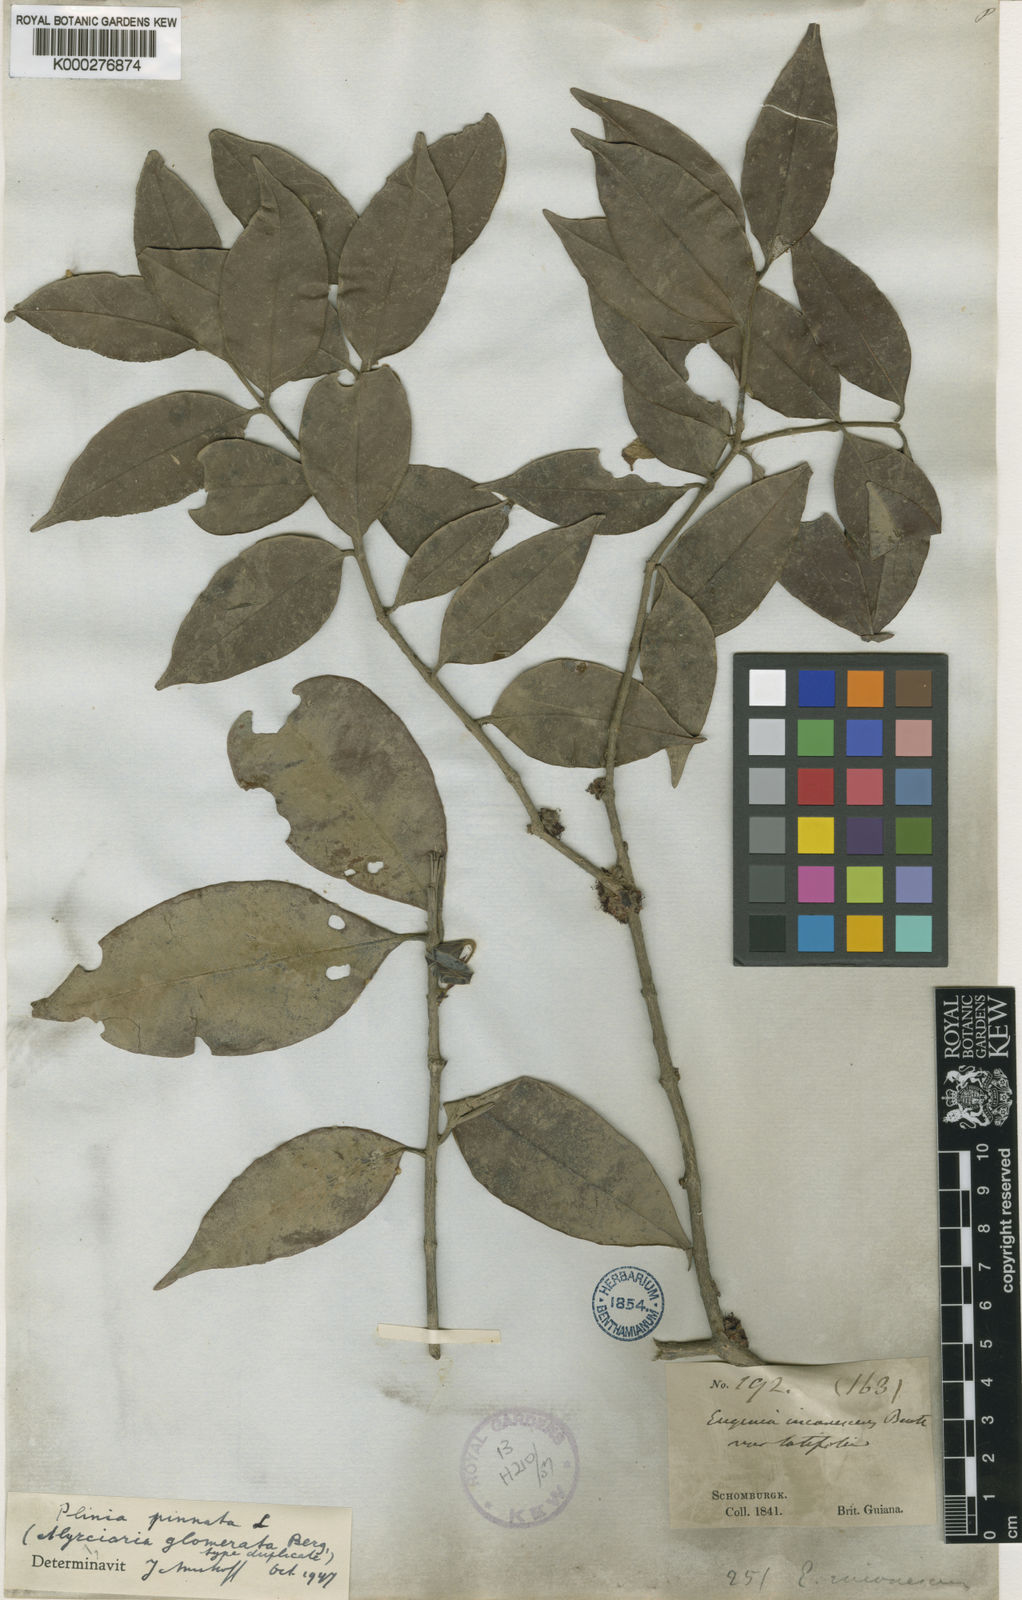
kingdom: Plantae
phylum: Tracheophyta
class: Magnoliopsida
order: Myrtales
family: Myrtaceae
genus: Plinia
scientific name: Plinia pinnata
